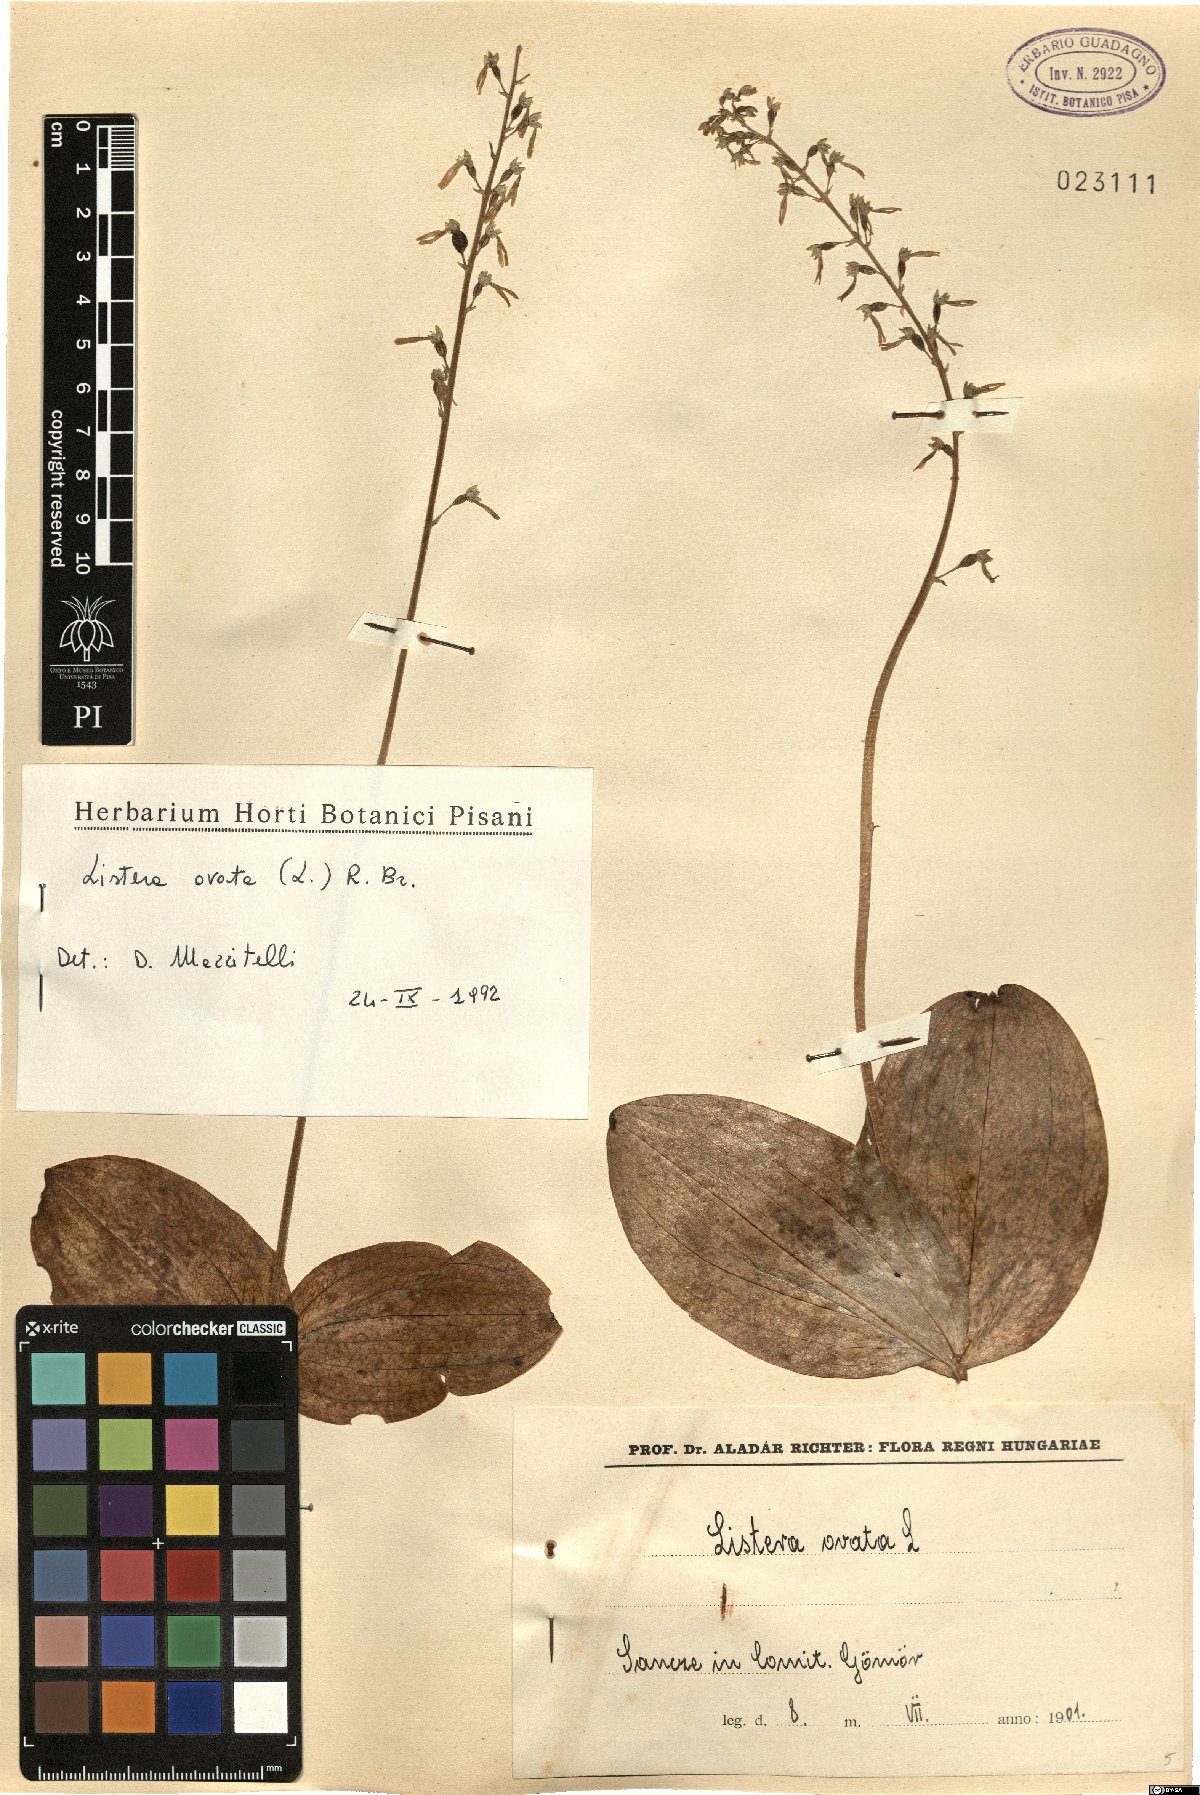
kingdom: Plantae
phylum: Tracheophyta
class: Liliopsida
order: Asparagales
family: Orchidaceae
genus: Neottia
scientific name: Neottia ovata
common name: Common twayblade
